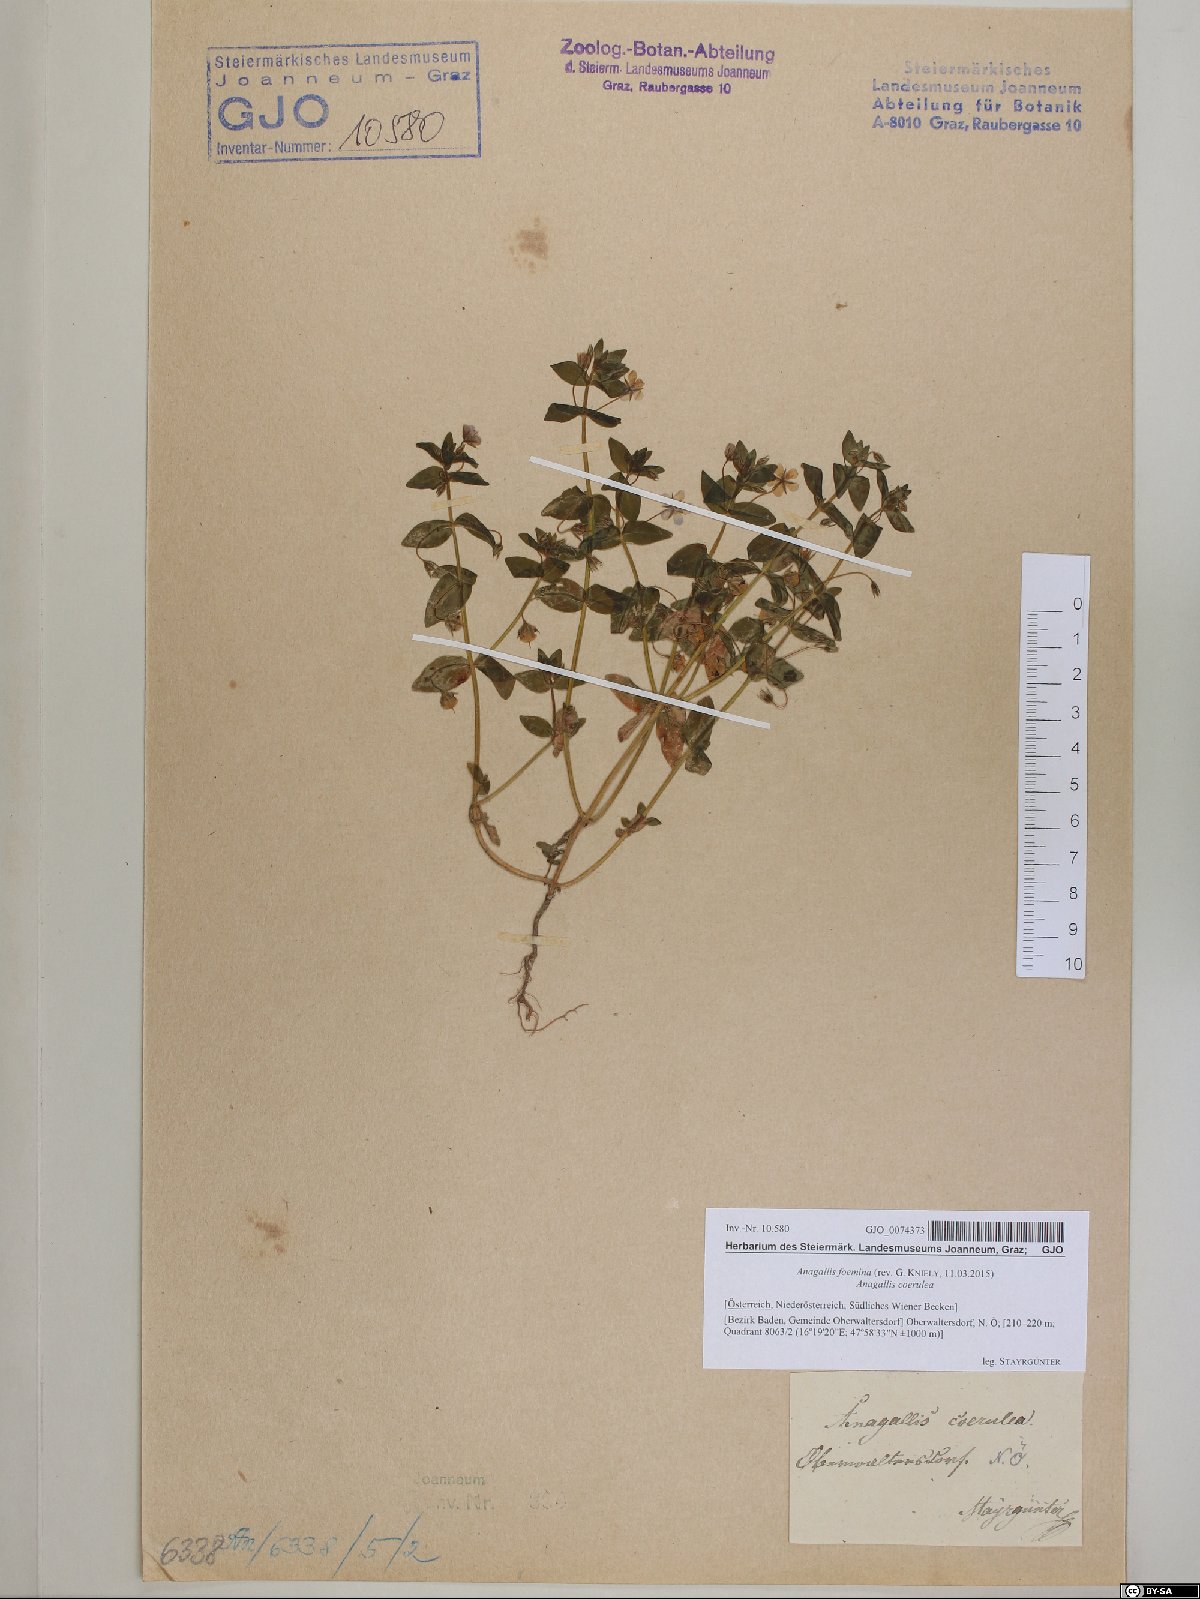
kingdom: Plantae
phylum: Tracheophyta
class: Magnoliopsida
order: Ericales
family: Primulaceae
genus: Lysimachia
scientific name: Lysimachia foemina
